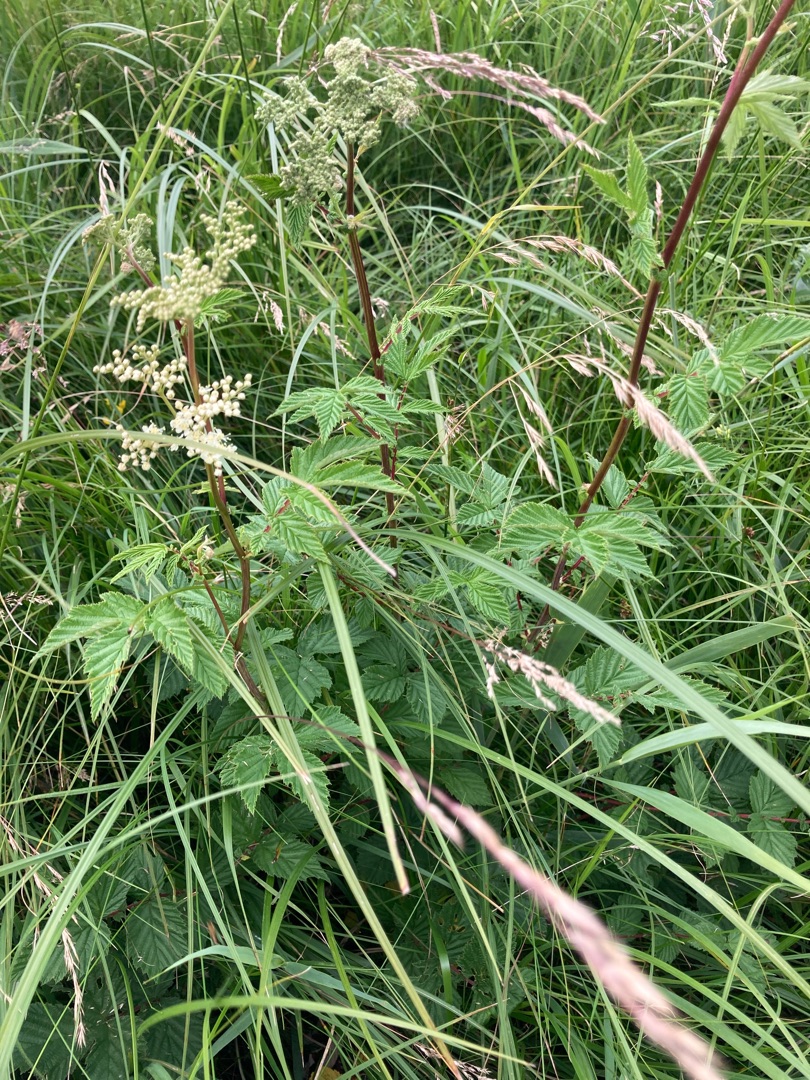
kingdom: Plantae
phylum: Tracheophyta
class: Magnoliopsida
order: Rosales
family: Rosaceae
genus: Filipendula
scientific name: Filipendula ulmaria
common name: Almindelig mjødurt
